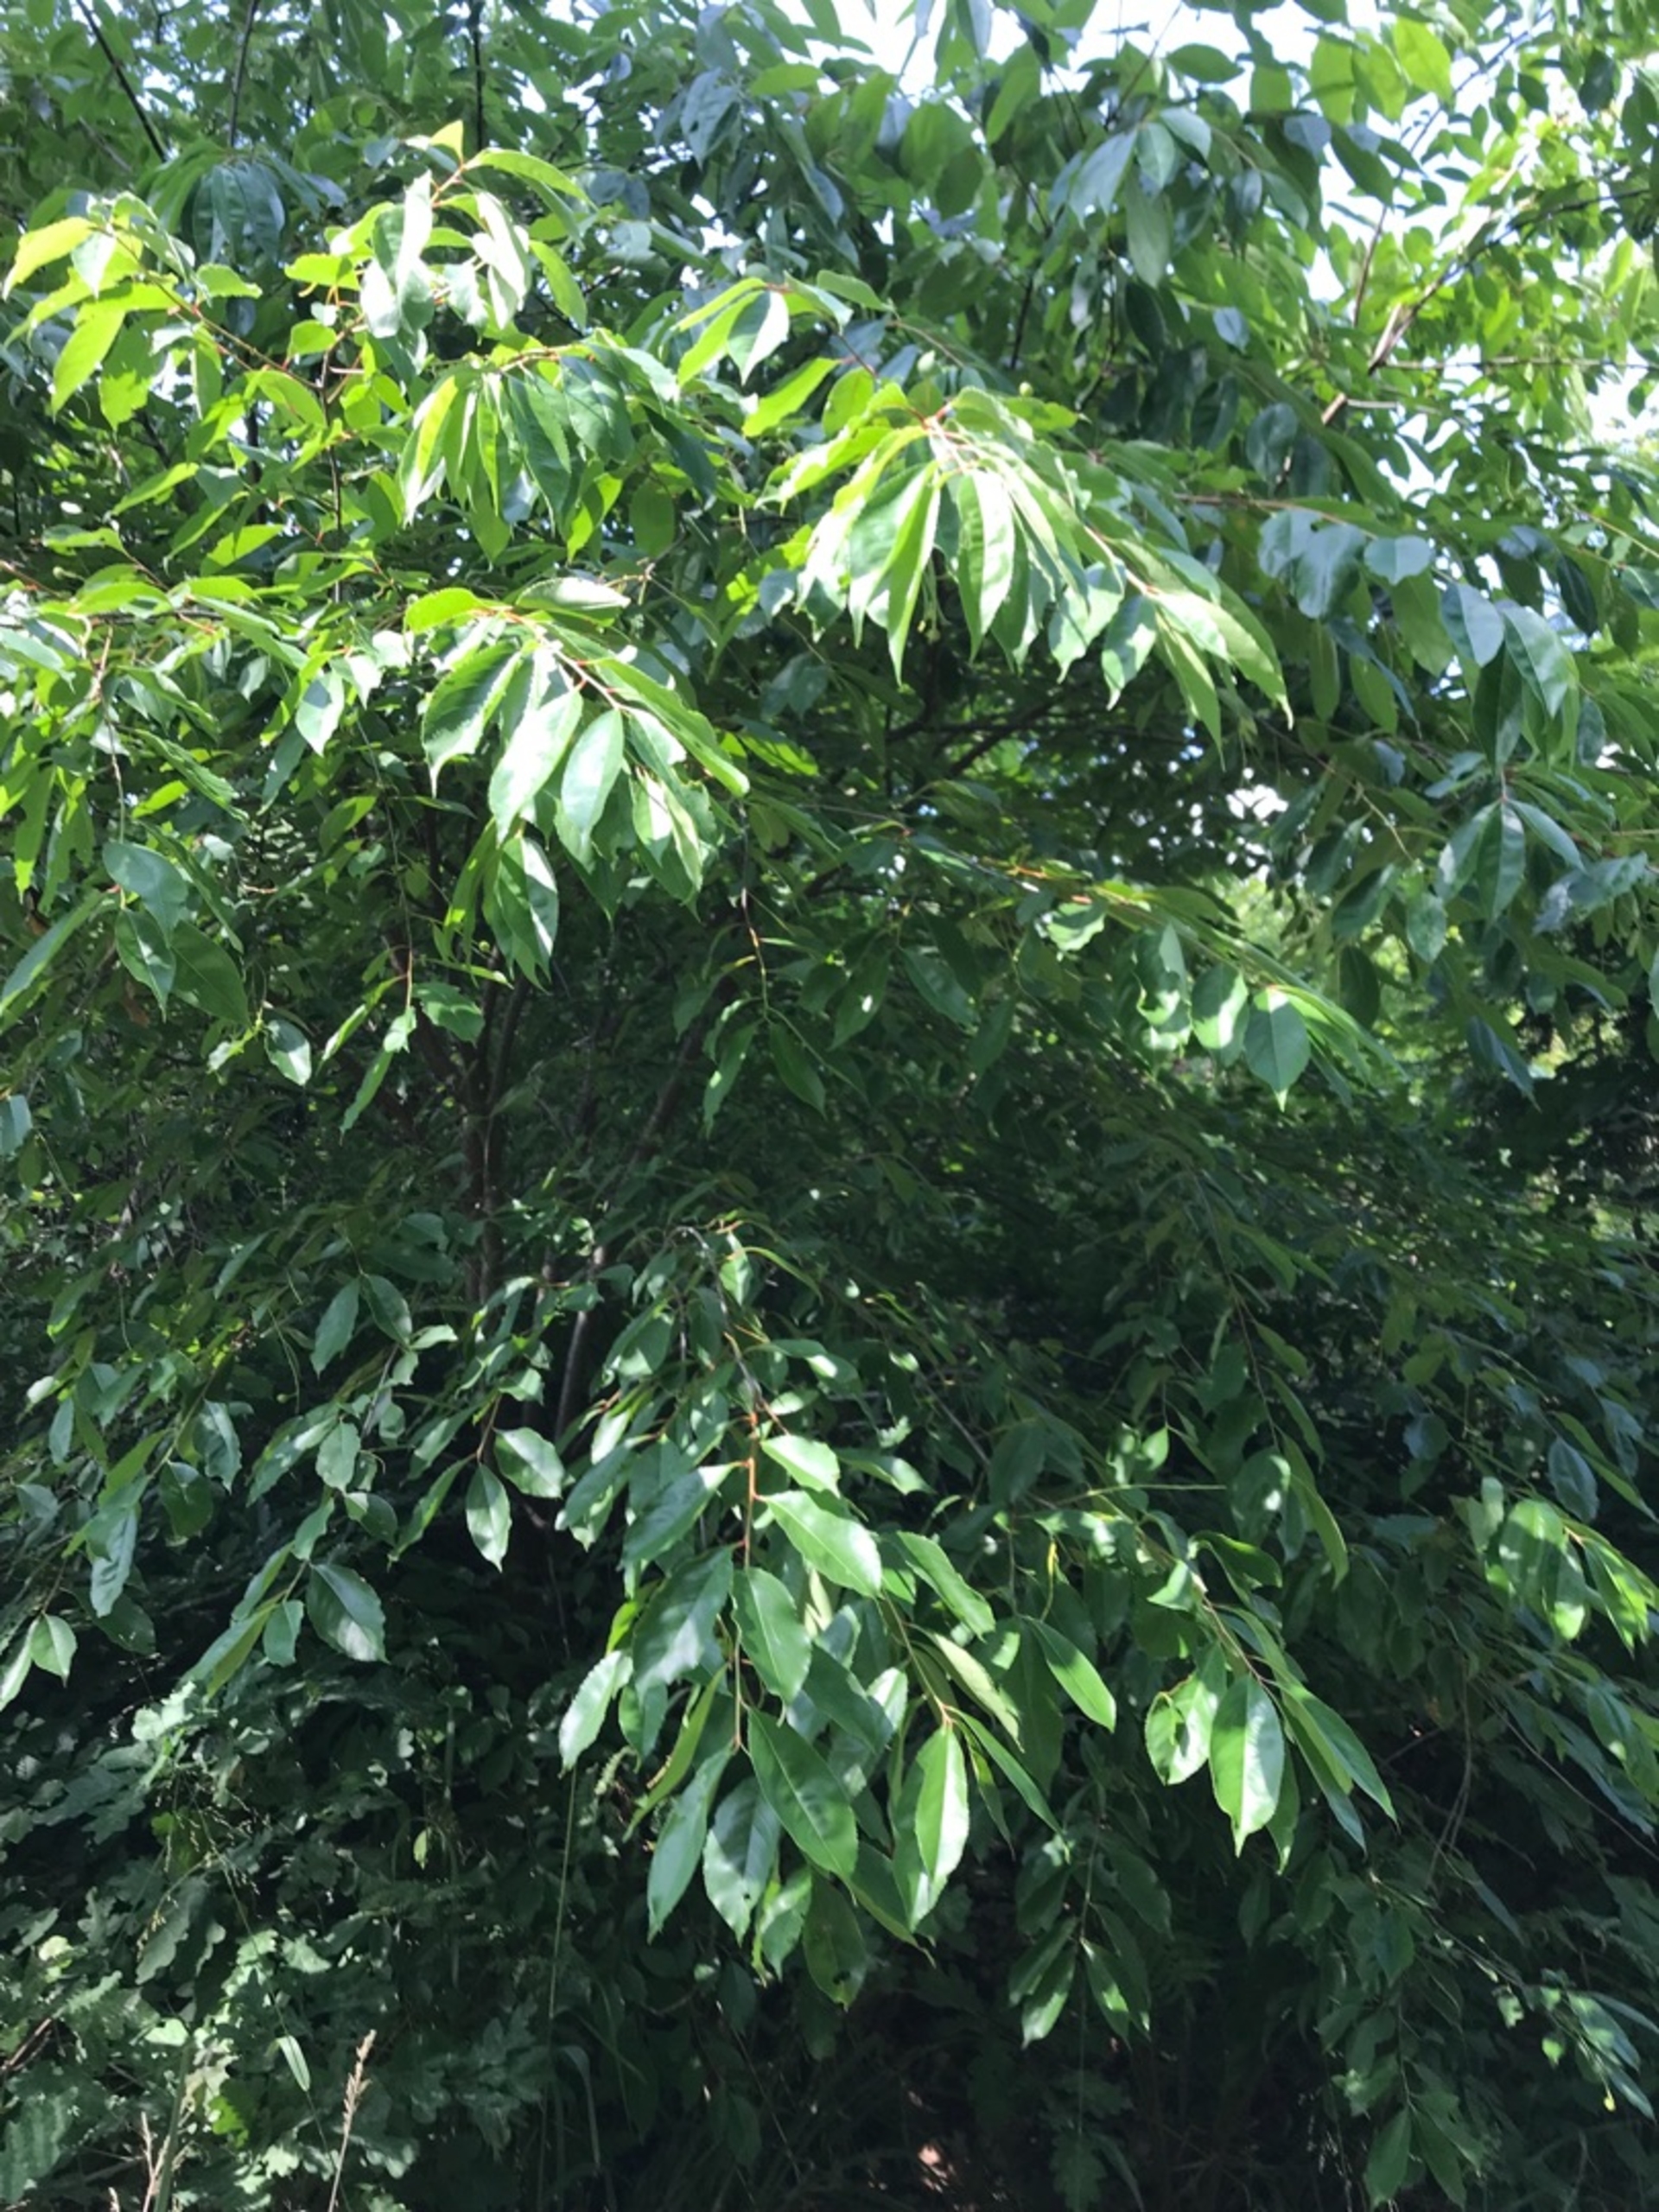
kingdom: Plantae
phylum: Tracheophyta
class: Magnoliopsida
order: Rosales
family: Rosaceae
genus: Prunus
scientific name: Prunus serotina
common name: Glansbladet hæg
